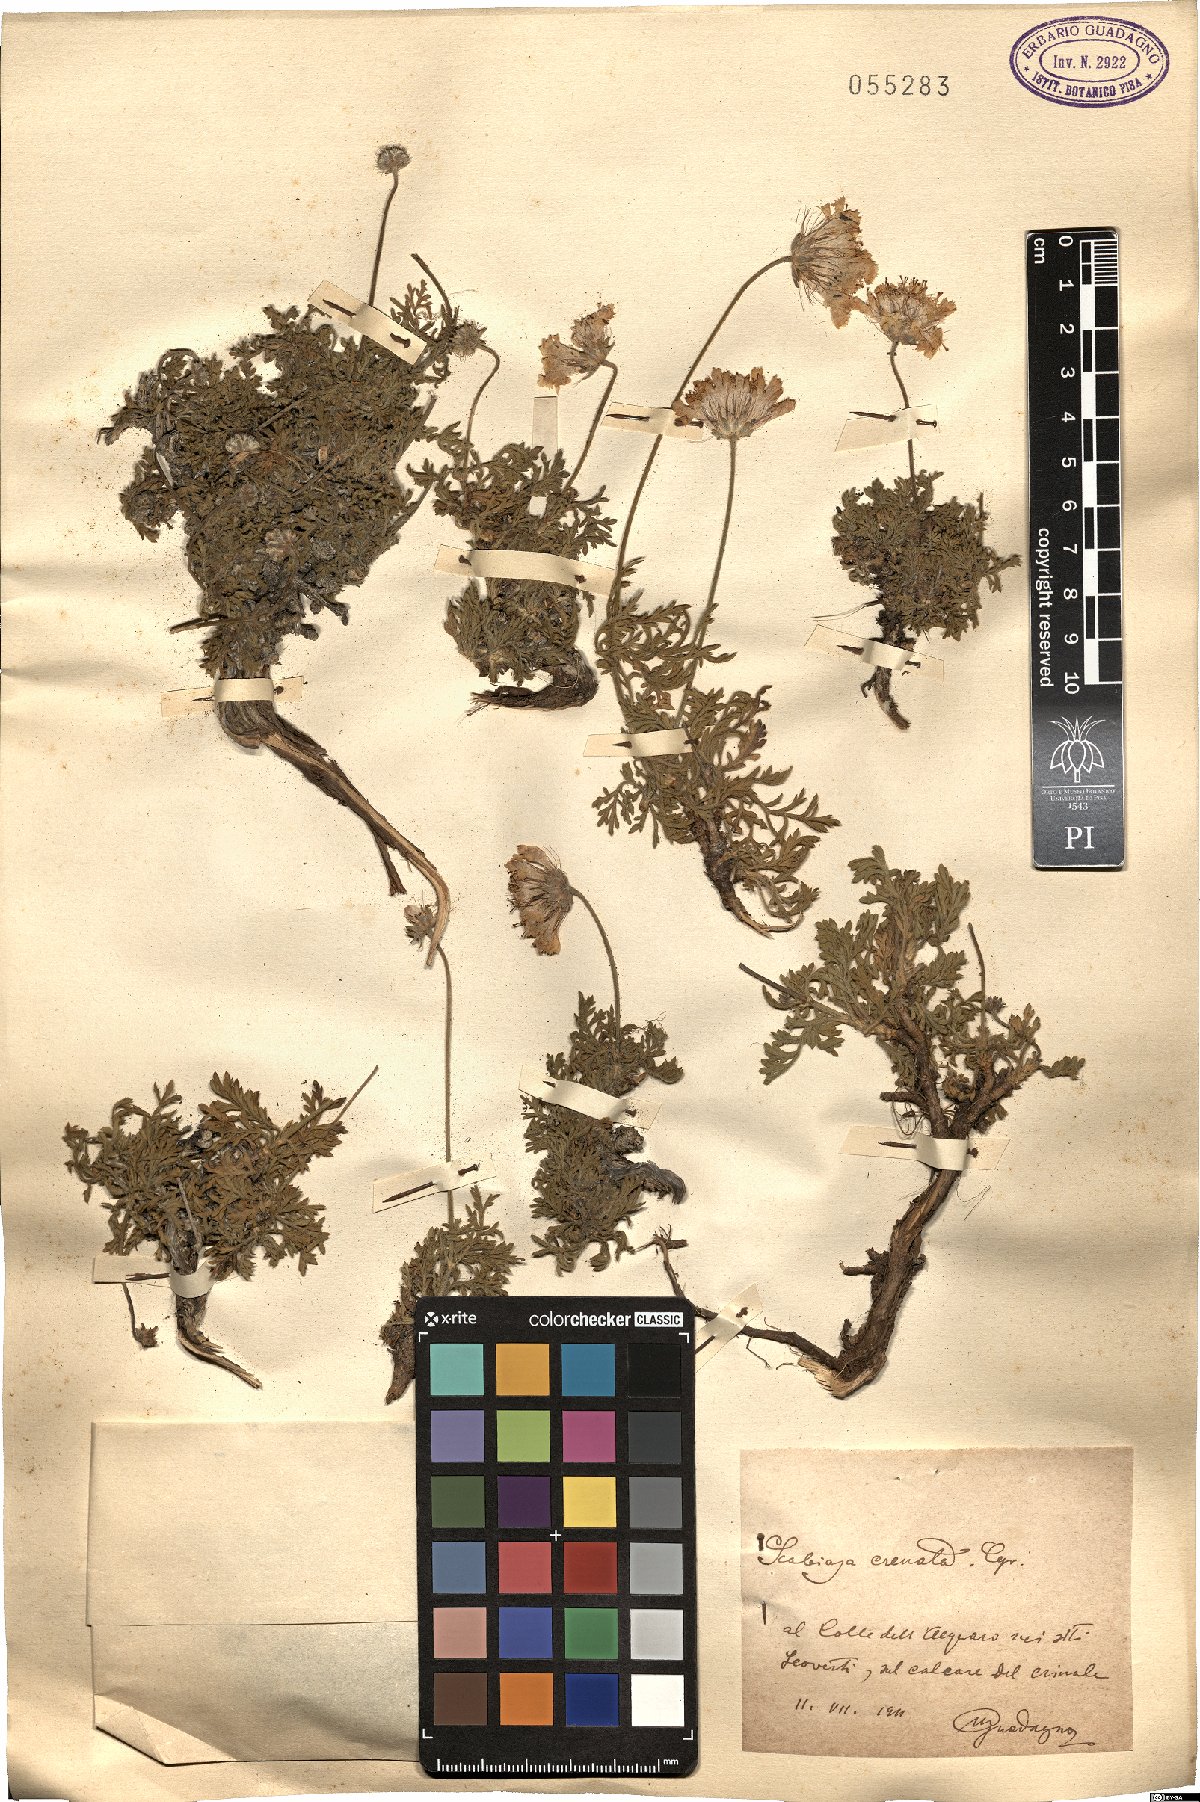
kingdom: Plantae
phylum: Tracheophyta
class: Magnoliopsida
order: Dipsacales
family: Caprifoliaceae
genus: Lomelosia
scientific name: Lomelosia crenata
